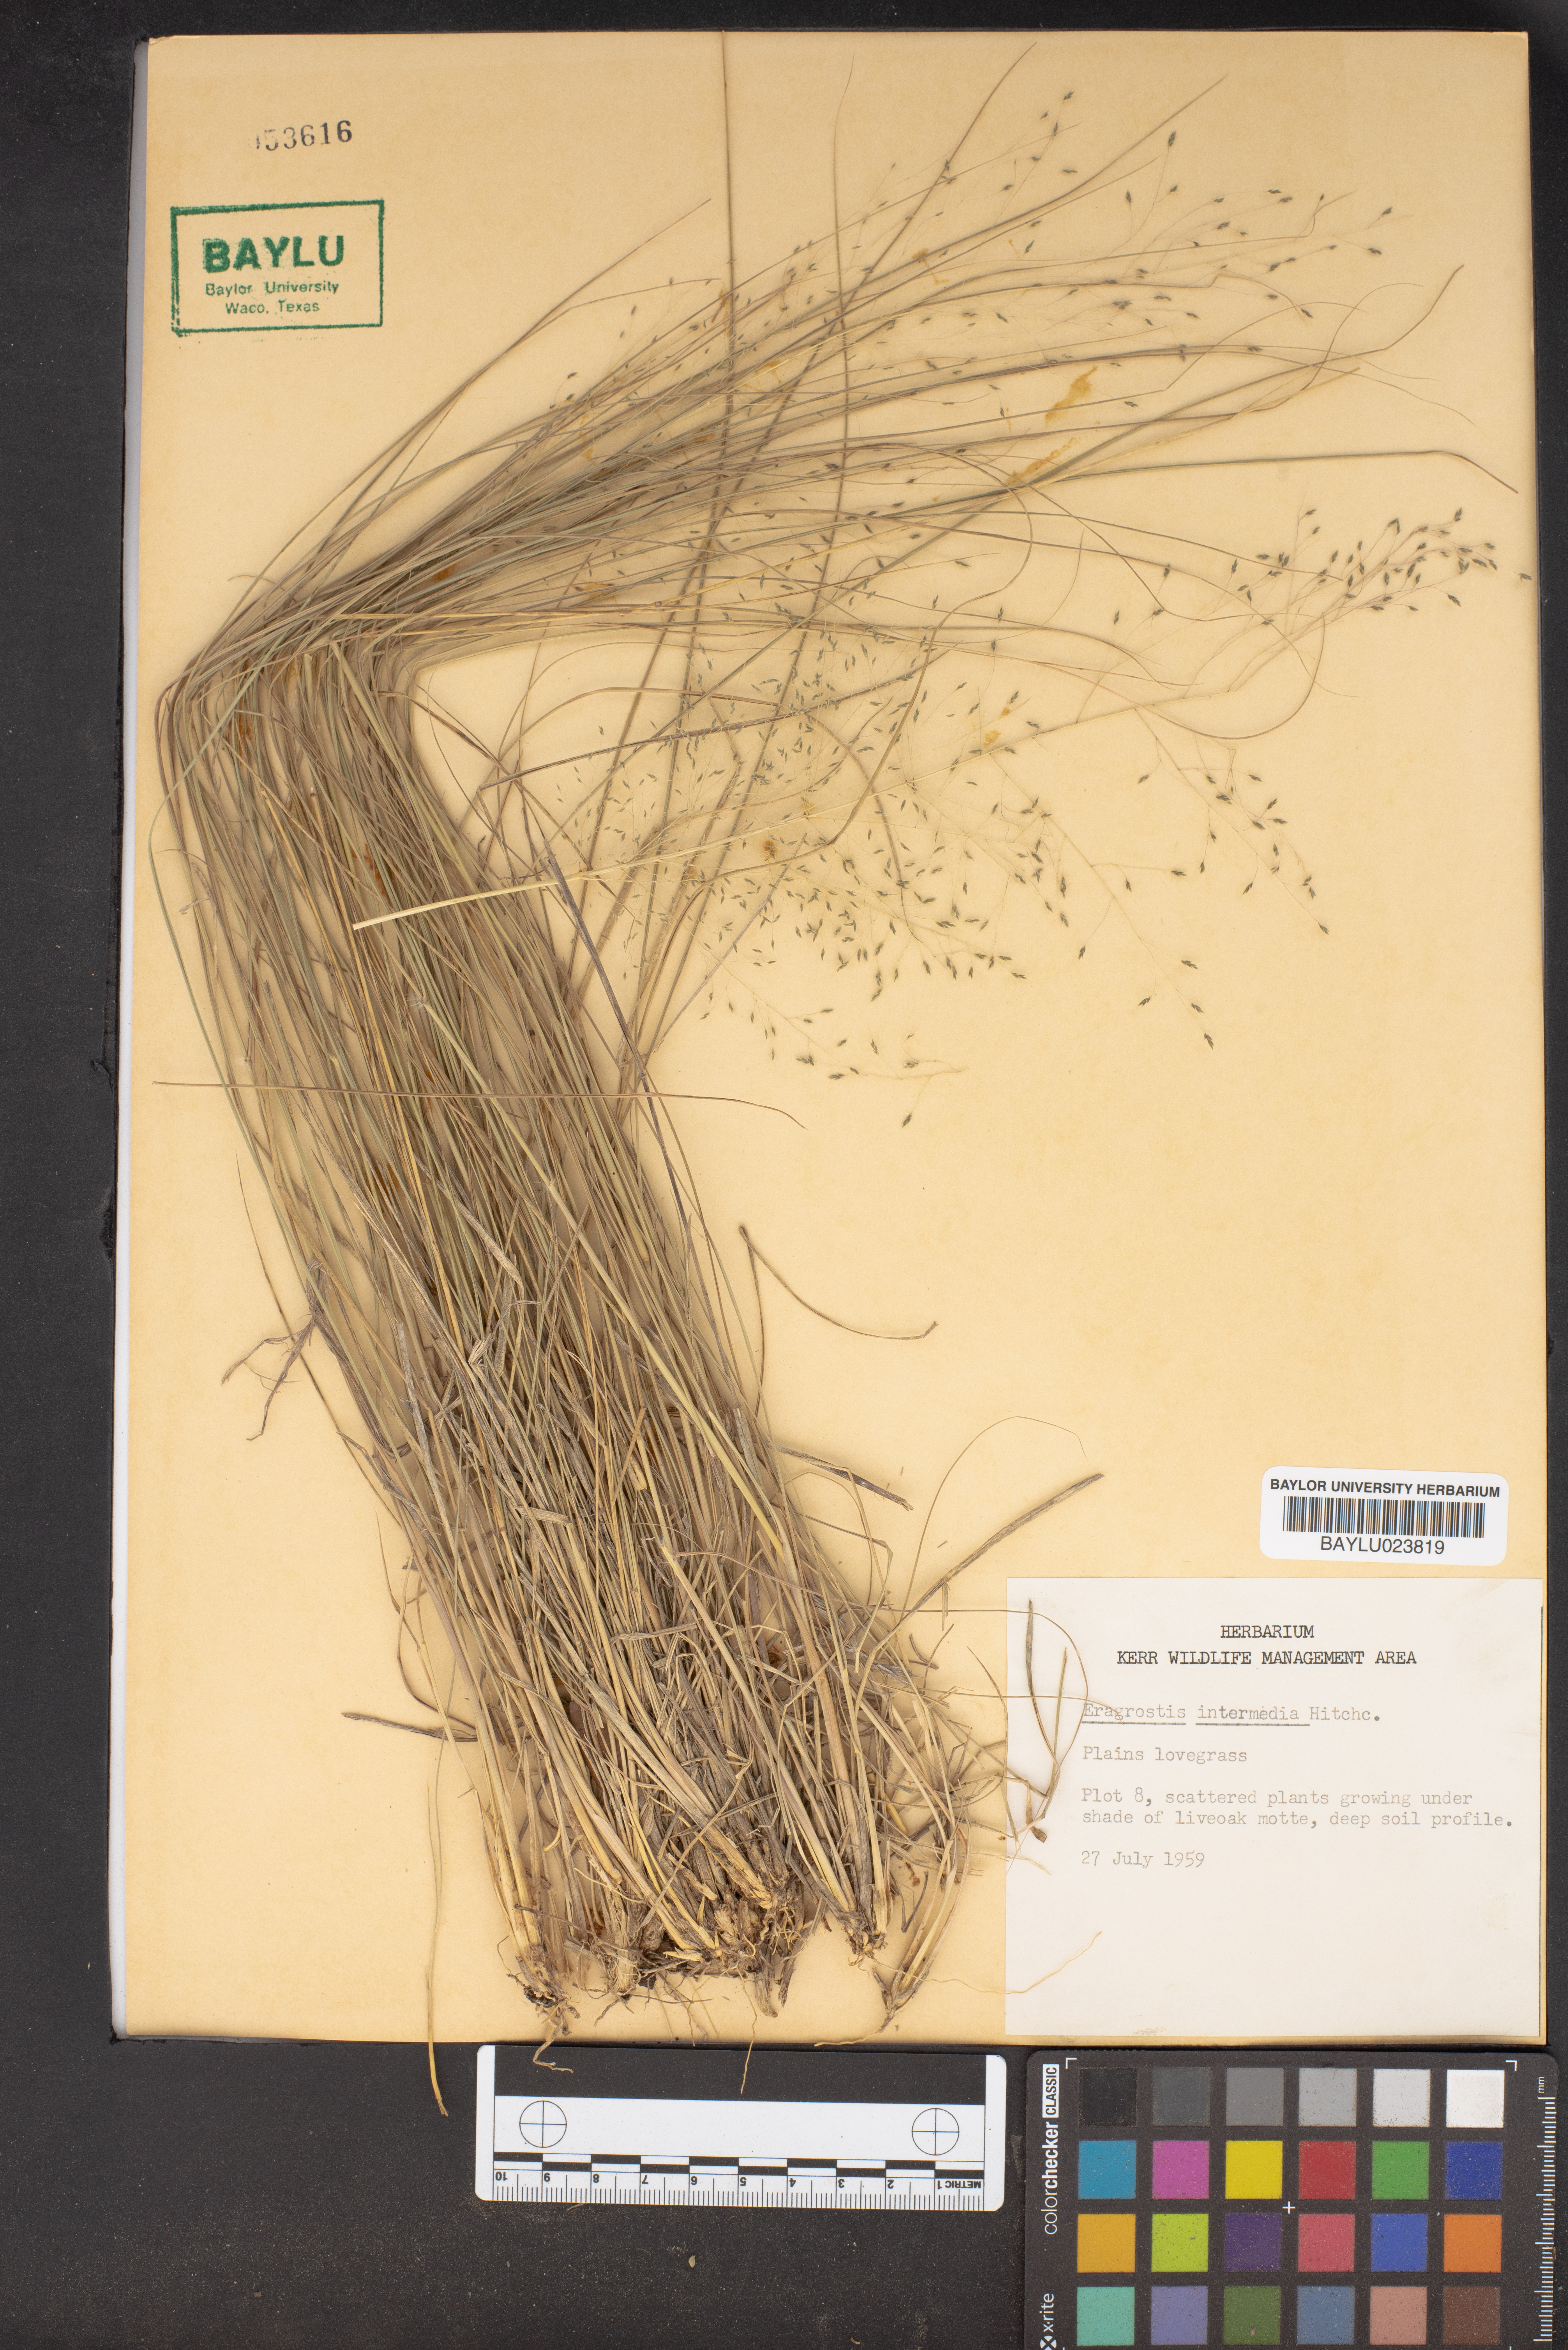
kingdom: Plantae
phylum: Tracheophyta
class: Liliopsida
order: Poales
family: Poaceae
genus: Eragrostis
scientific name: Eragrostis intermedia
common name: Plains love grass
